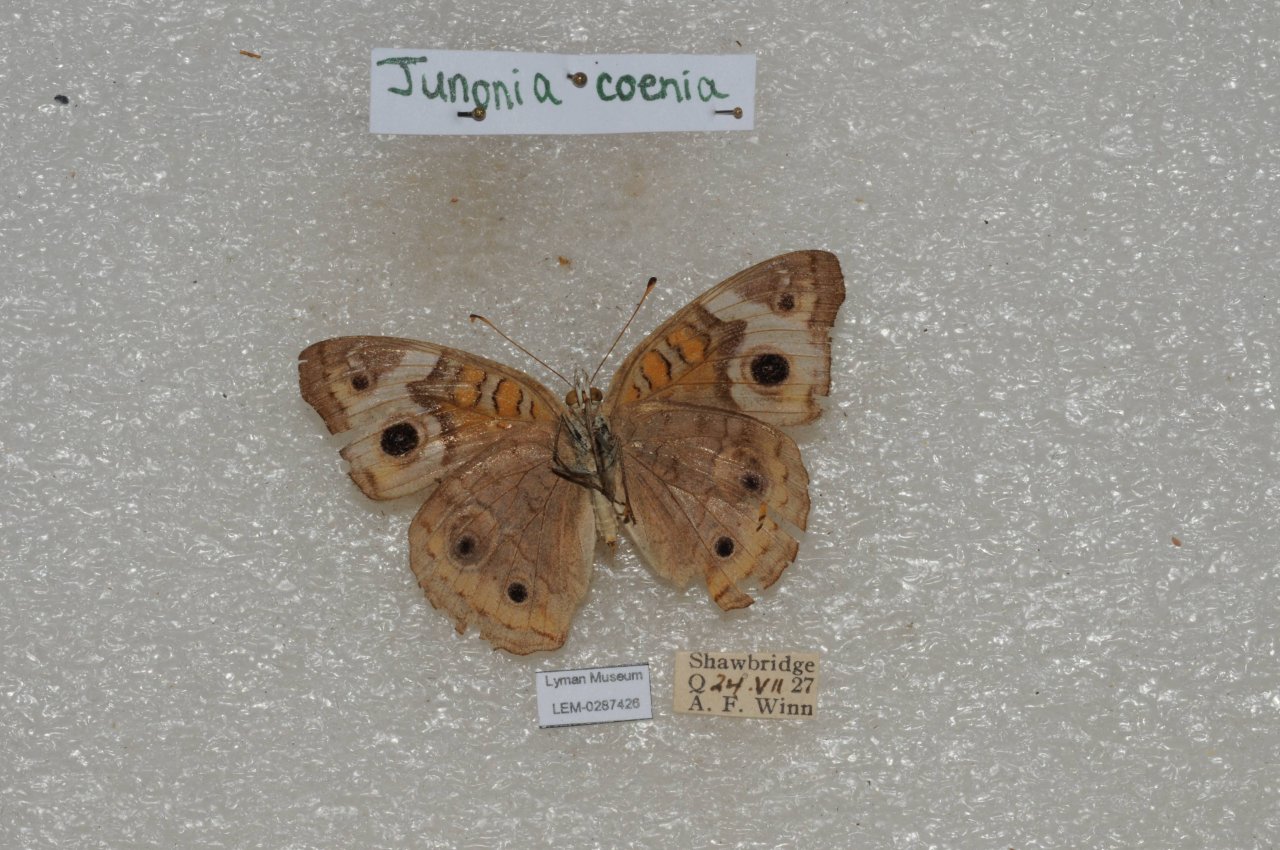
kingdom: Animalia
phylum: Arthropoda
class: Insecta
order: Lepidoptera
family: Nymphalidae
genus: Junonia
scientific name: Junonia coenia
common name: Common Buckeye
